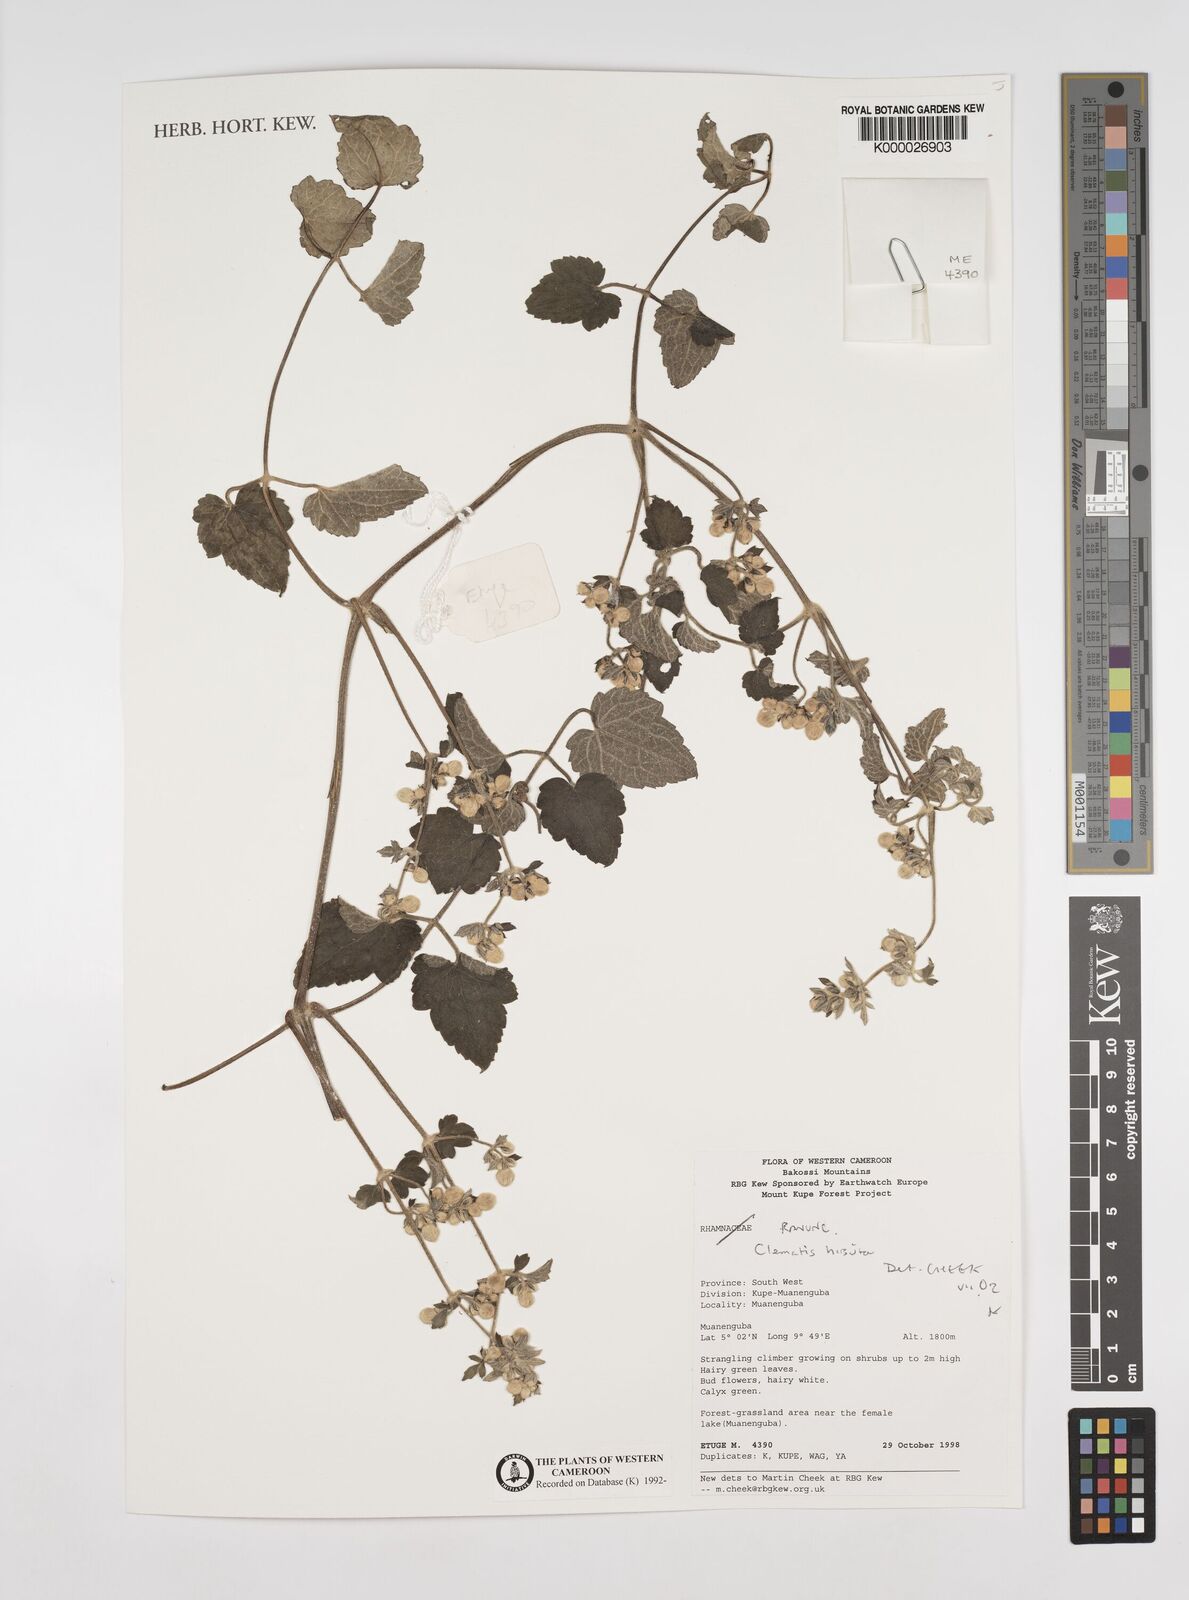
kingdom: Plantae
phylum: Tracheophyta
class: Magnoliopsida
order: Ranunculales
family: Ranunculaceae
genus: Clematis
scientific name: Clematis hirsuta
